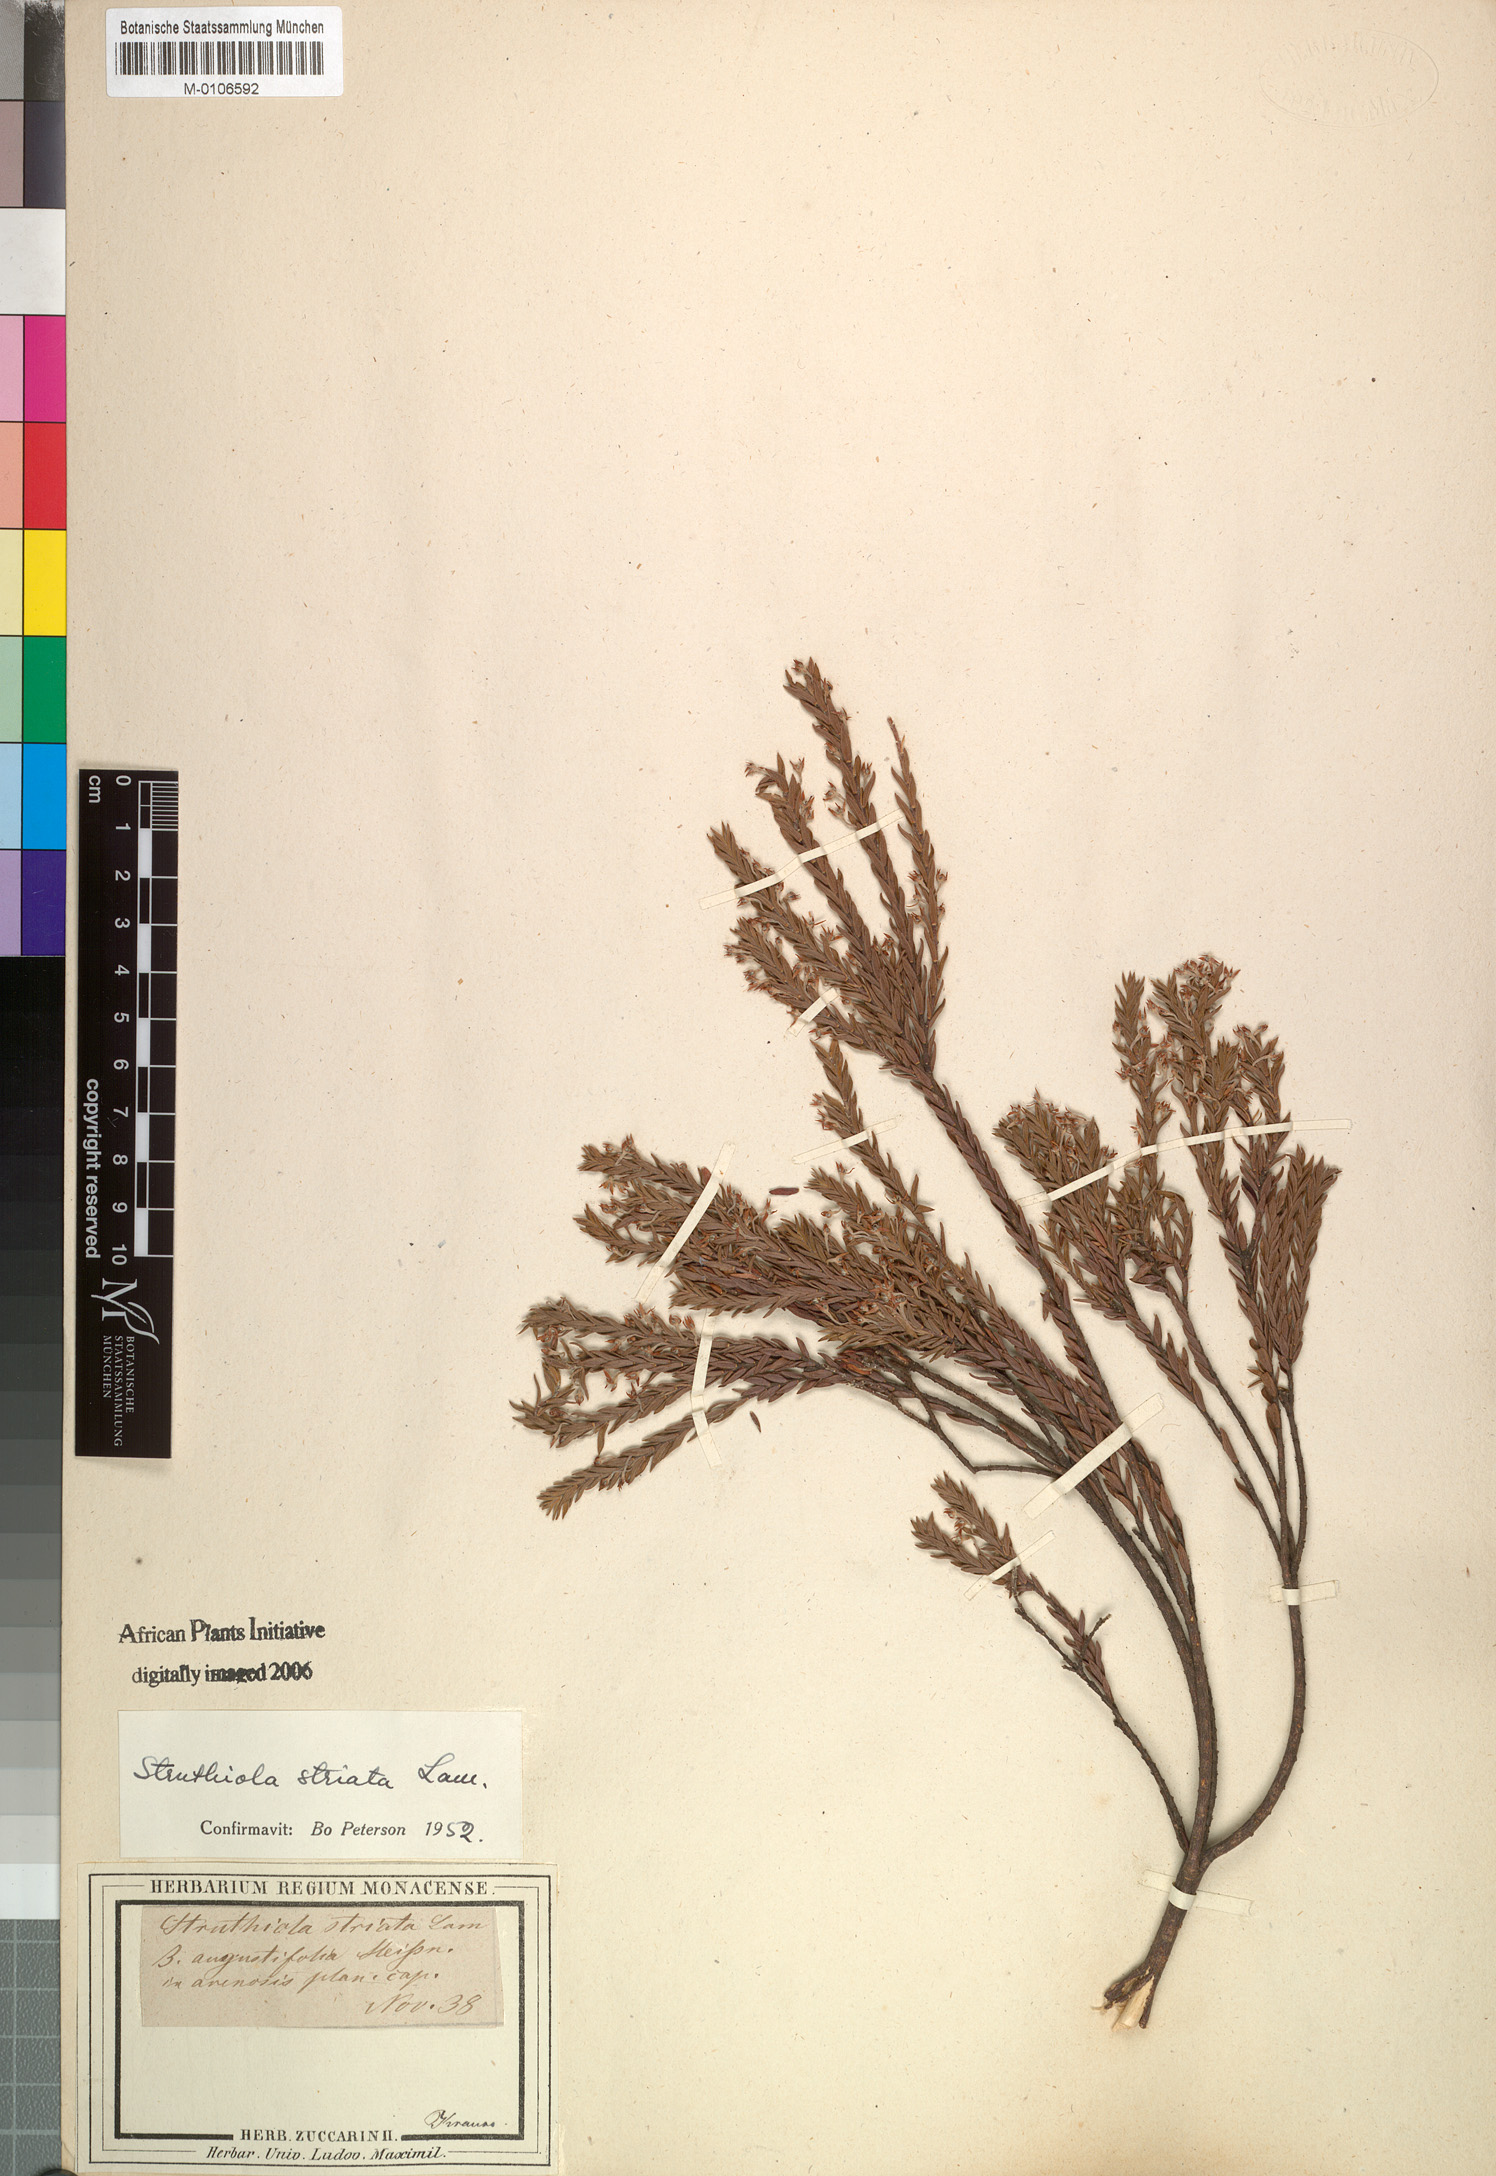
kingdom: Plantae
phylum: Tracheophyta
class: Magnoliopsida
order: Malvales
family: Thymelaeaceae
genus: Struthiola
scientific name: Struthiola striata
